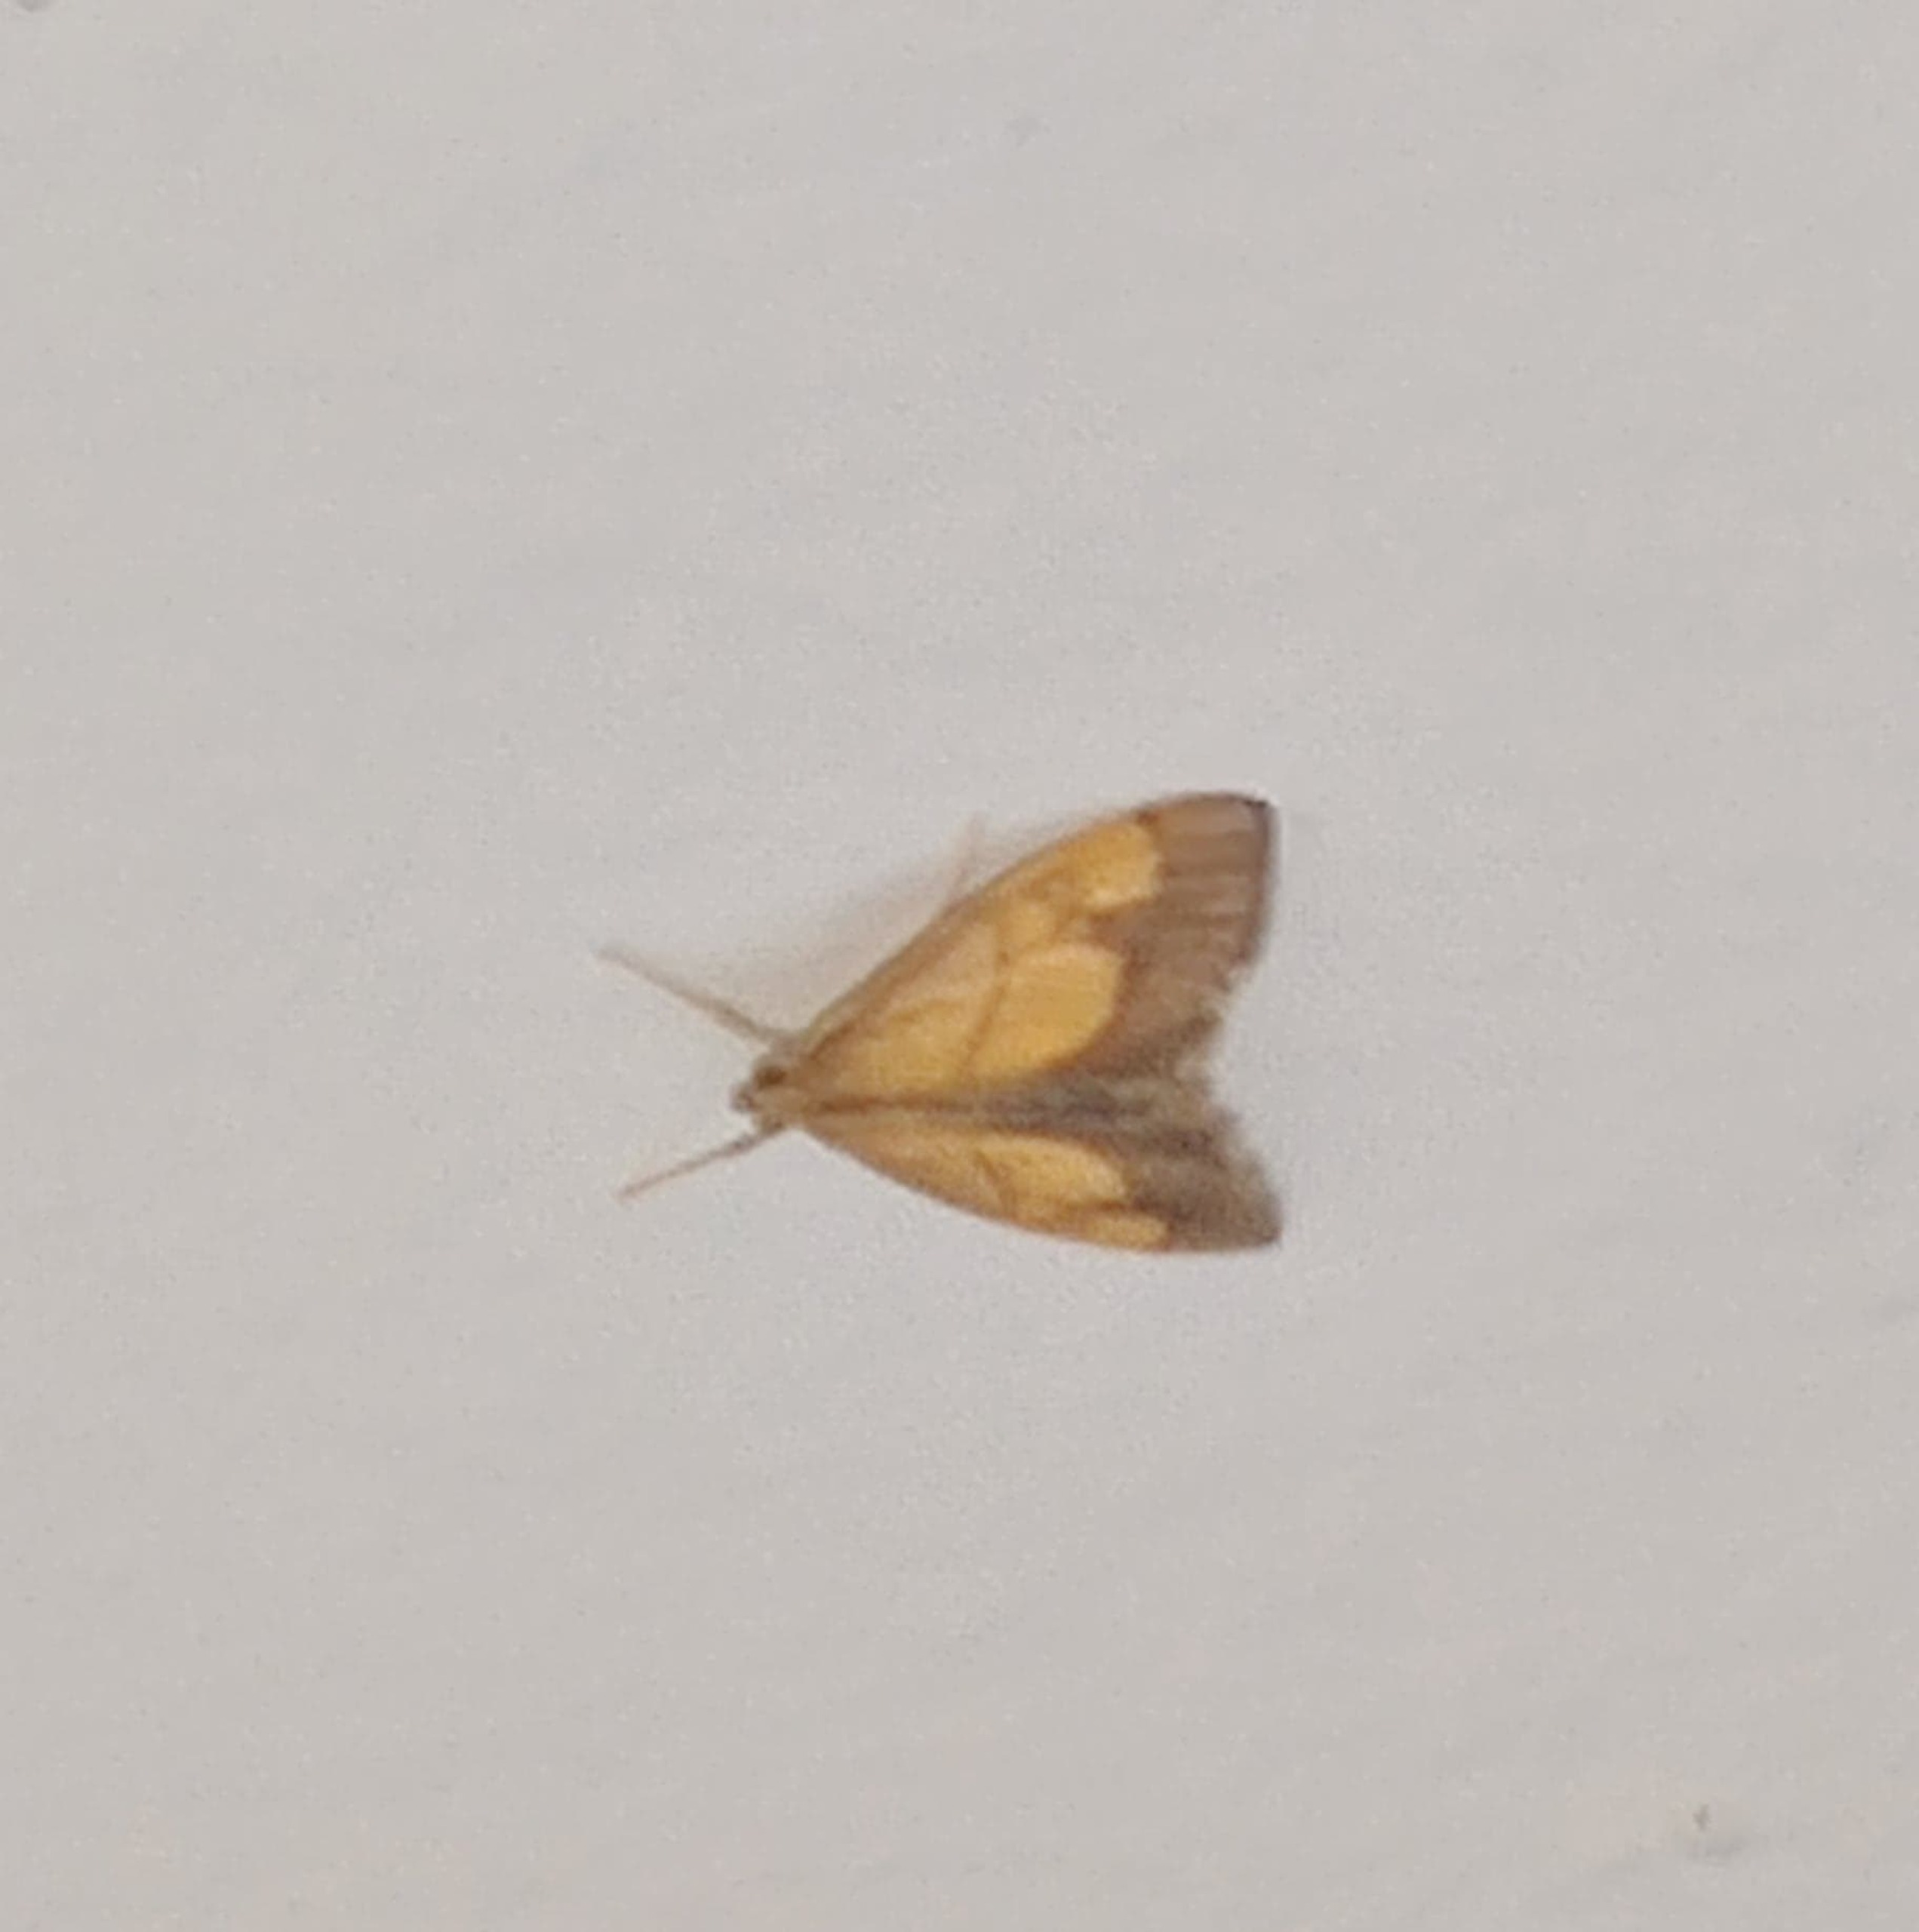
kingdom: Animalia
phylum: Arthropoda
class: Insecta
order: Lepidoptera
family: Crambidae
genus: Ostrinia
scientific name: Ostrinia nubilalis
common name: Majshalvmøl
